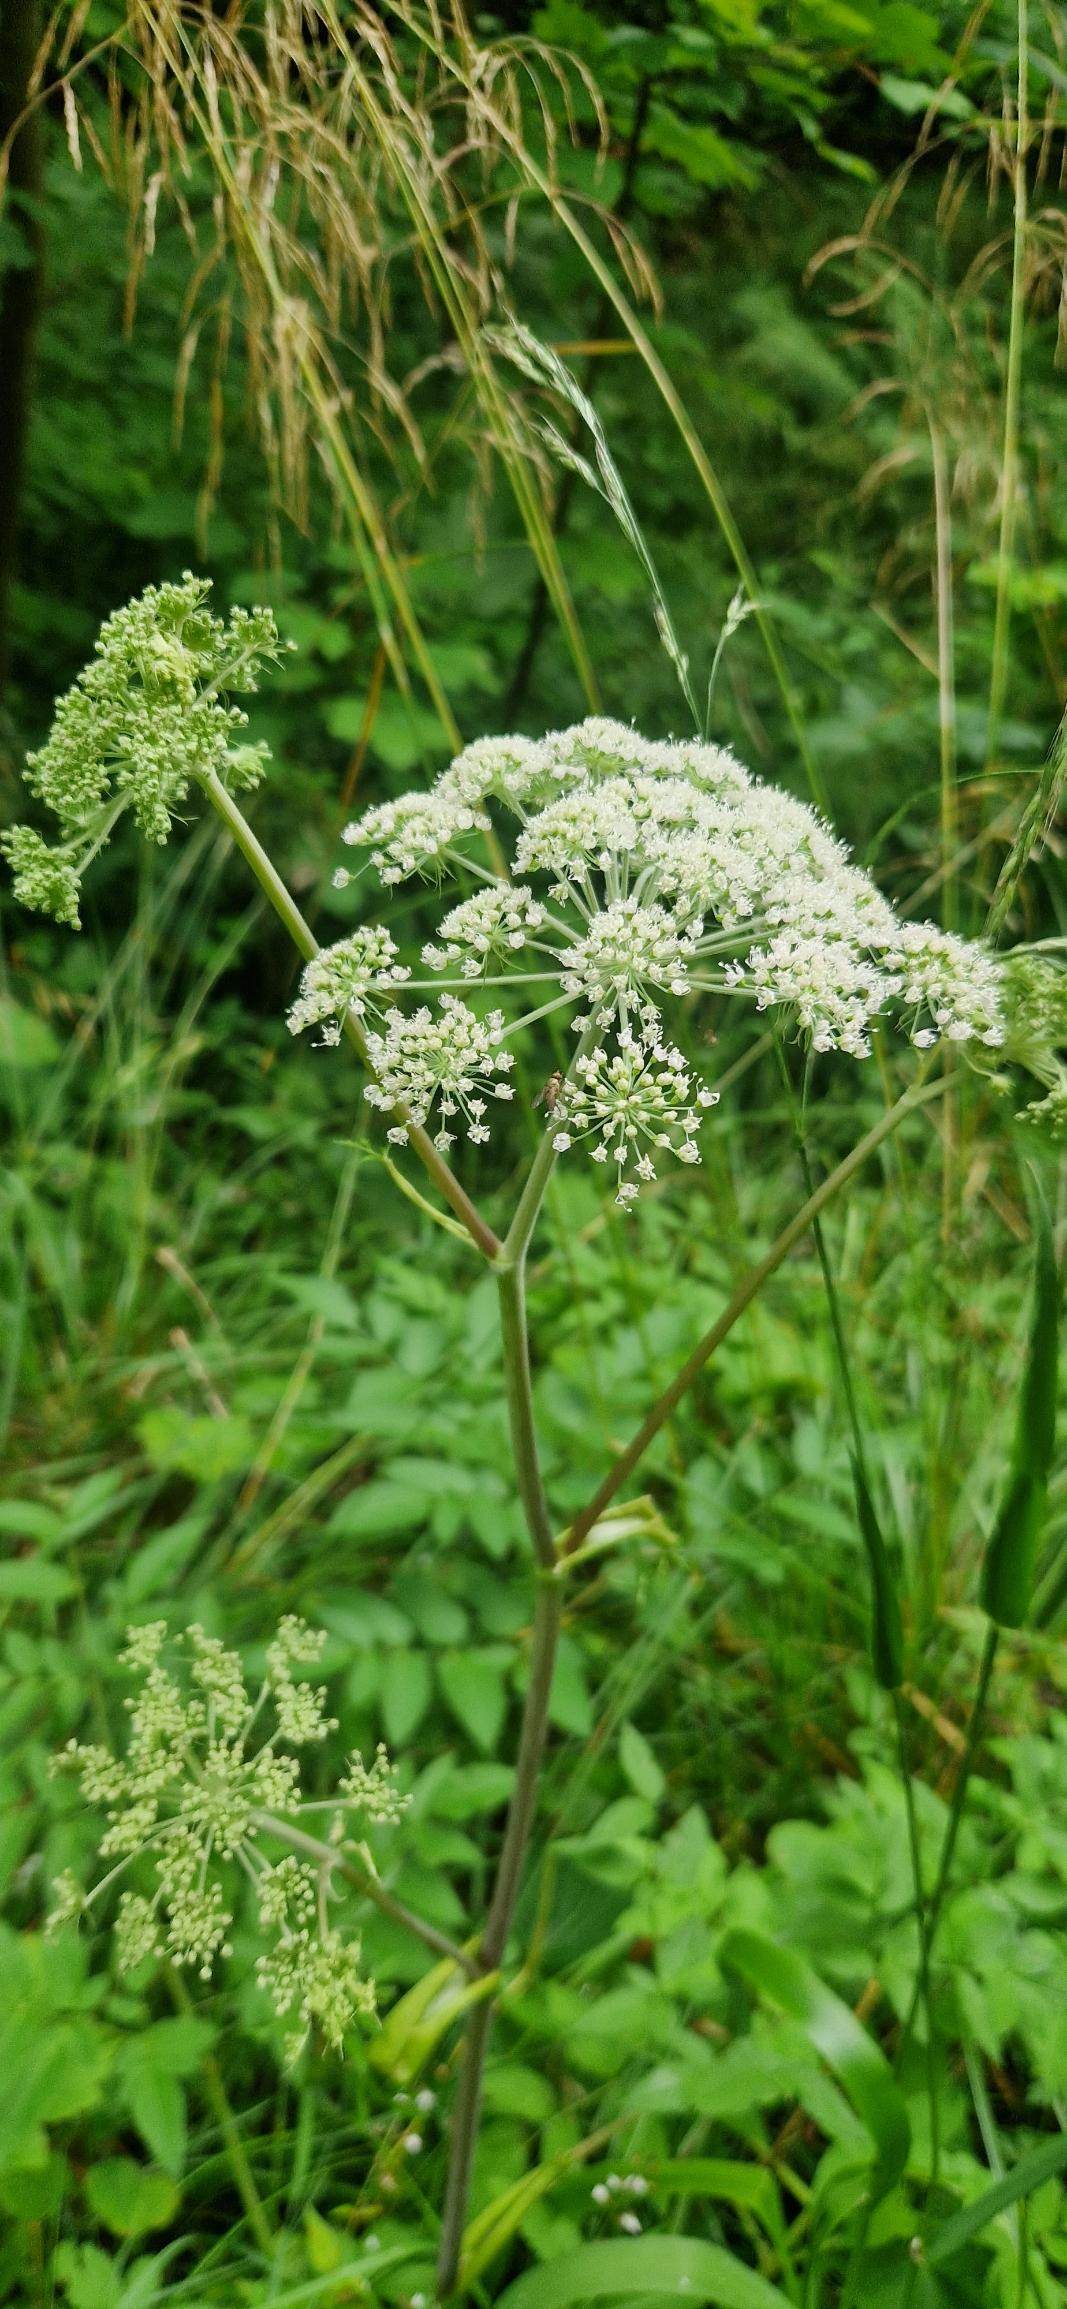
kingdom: Plantae
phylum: Tracheophyta
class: Magnoliopsida
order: Apiales
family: Apiaceae
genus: Angelica
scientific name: Angelica sylvestris
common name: Angelik
